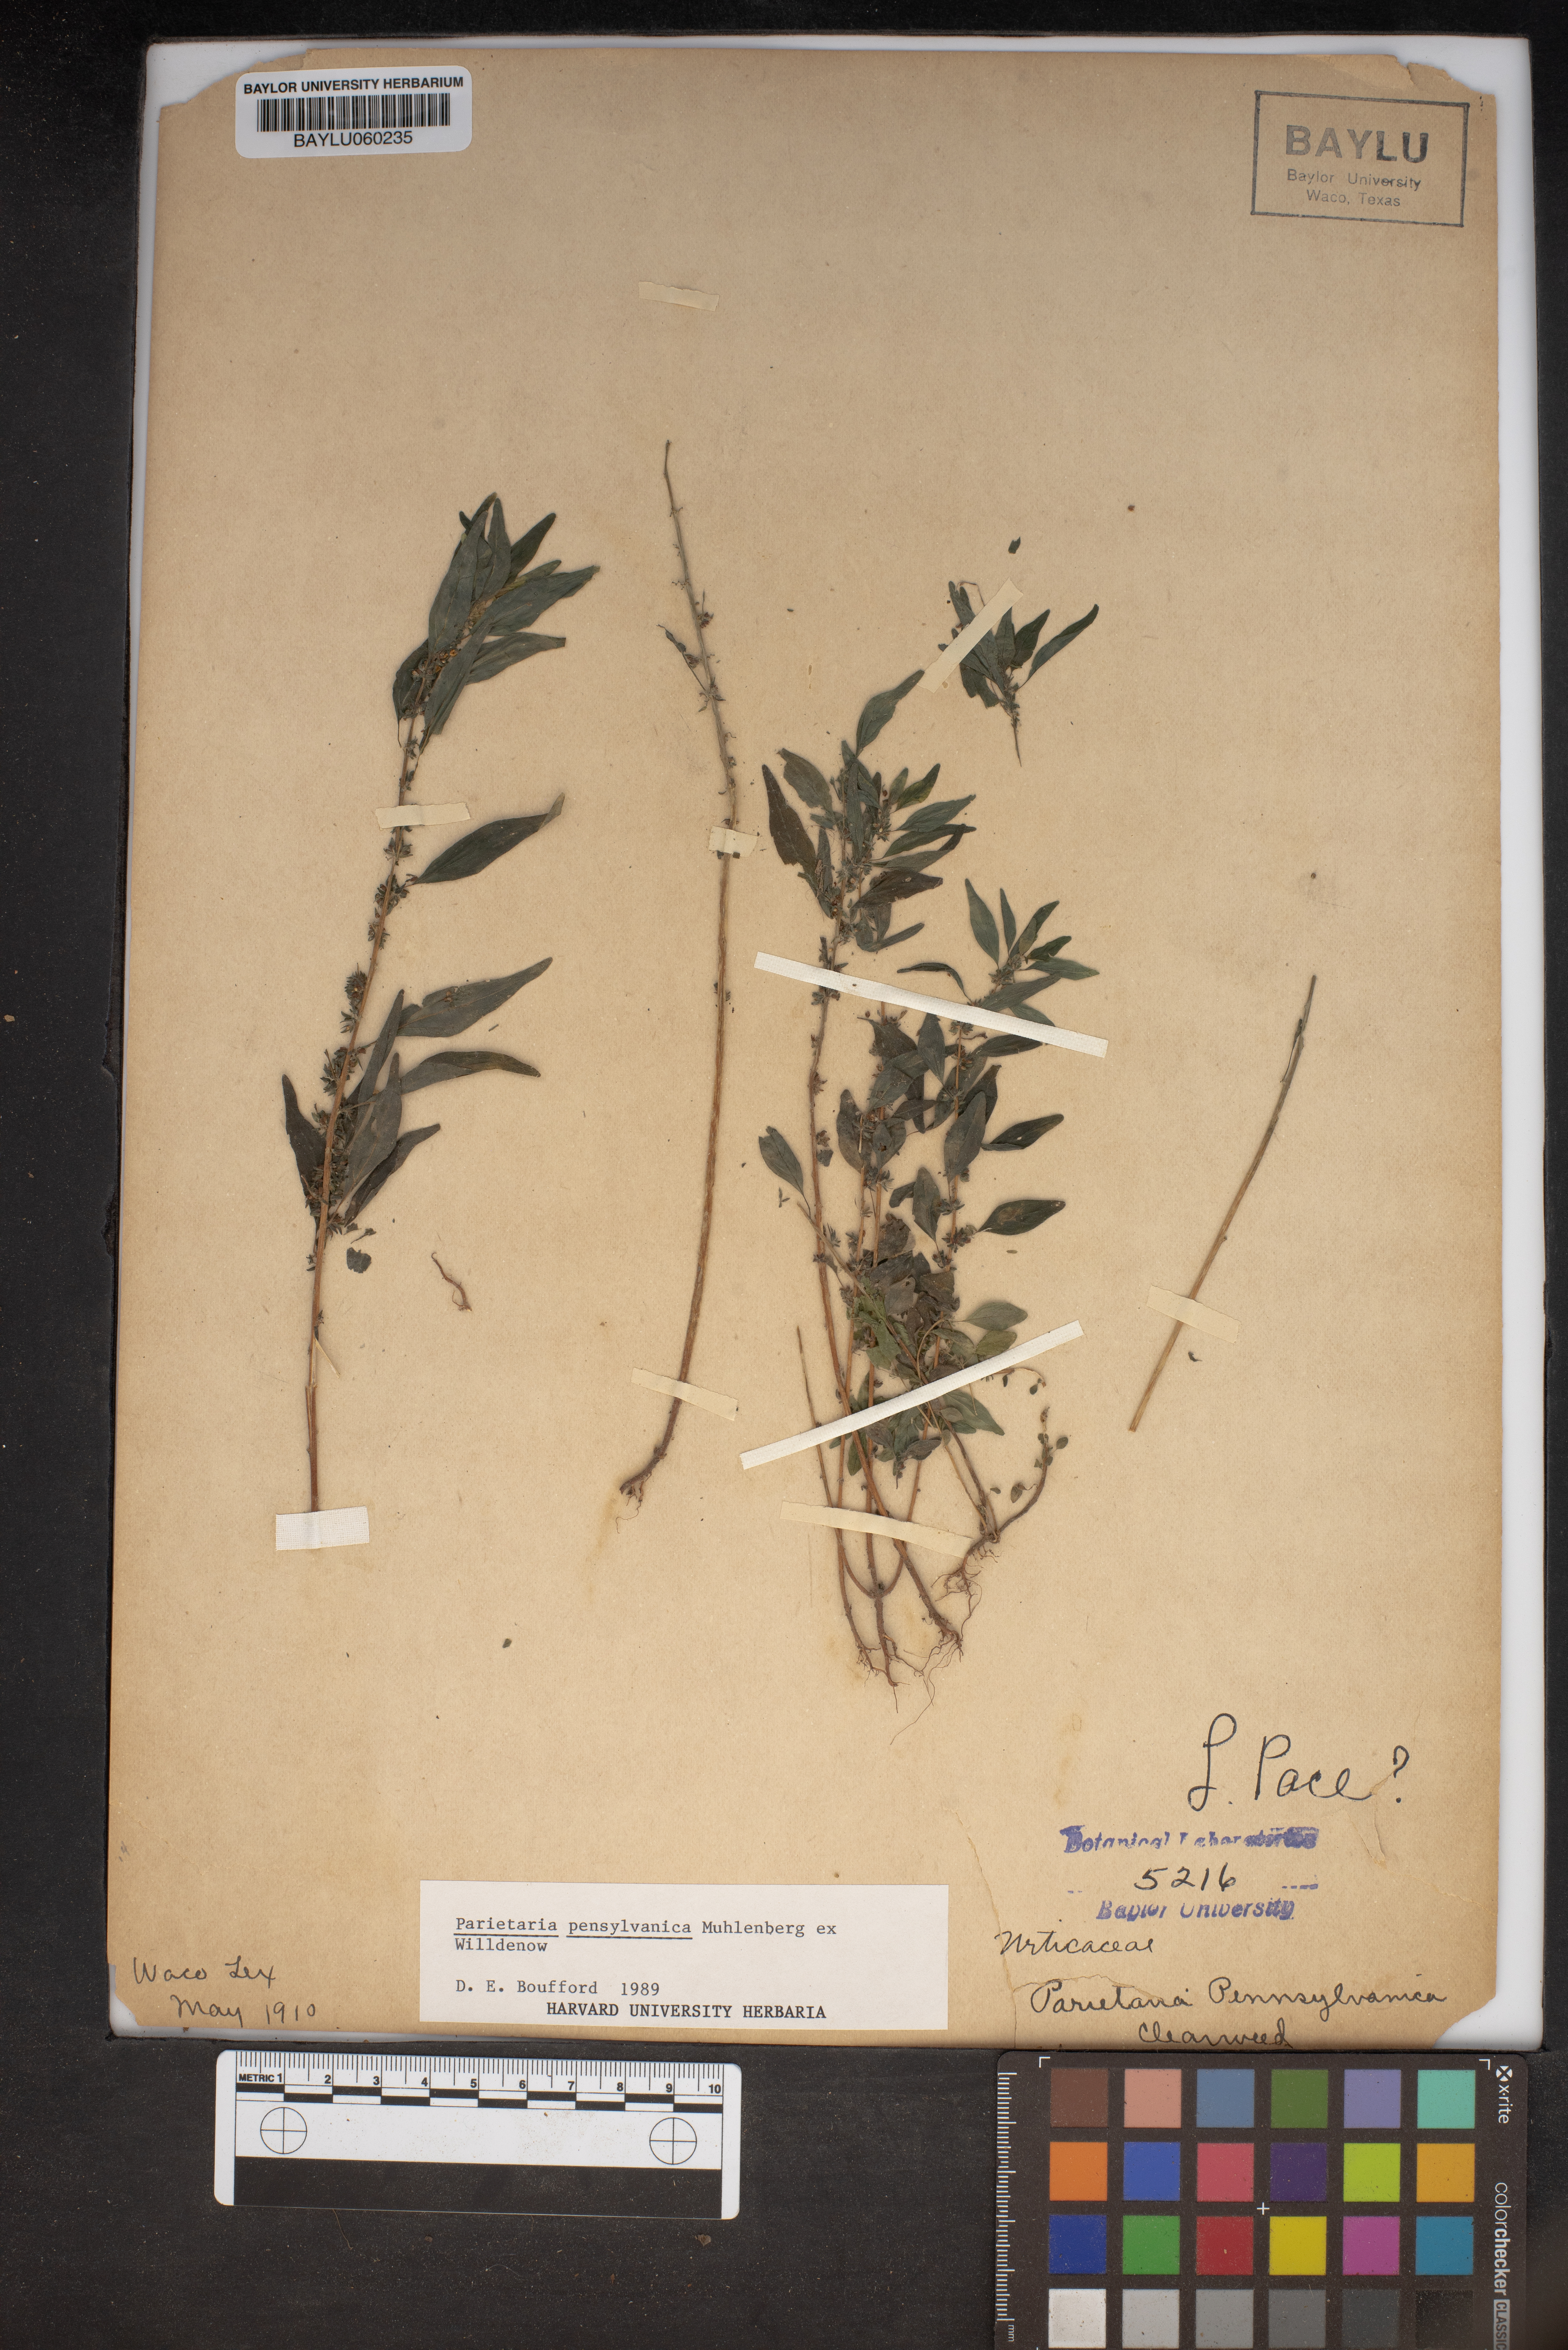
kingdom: Plantae
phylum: Tracheophyta
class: Magnoliopsida
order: Rosales
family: Urticaceae
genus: Parietaria
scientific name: Parietaria pensylvanica
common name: Pennsylvania pellitory
